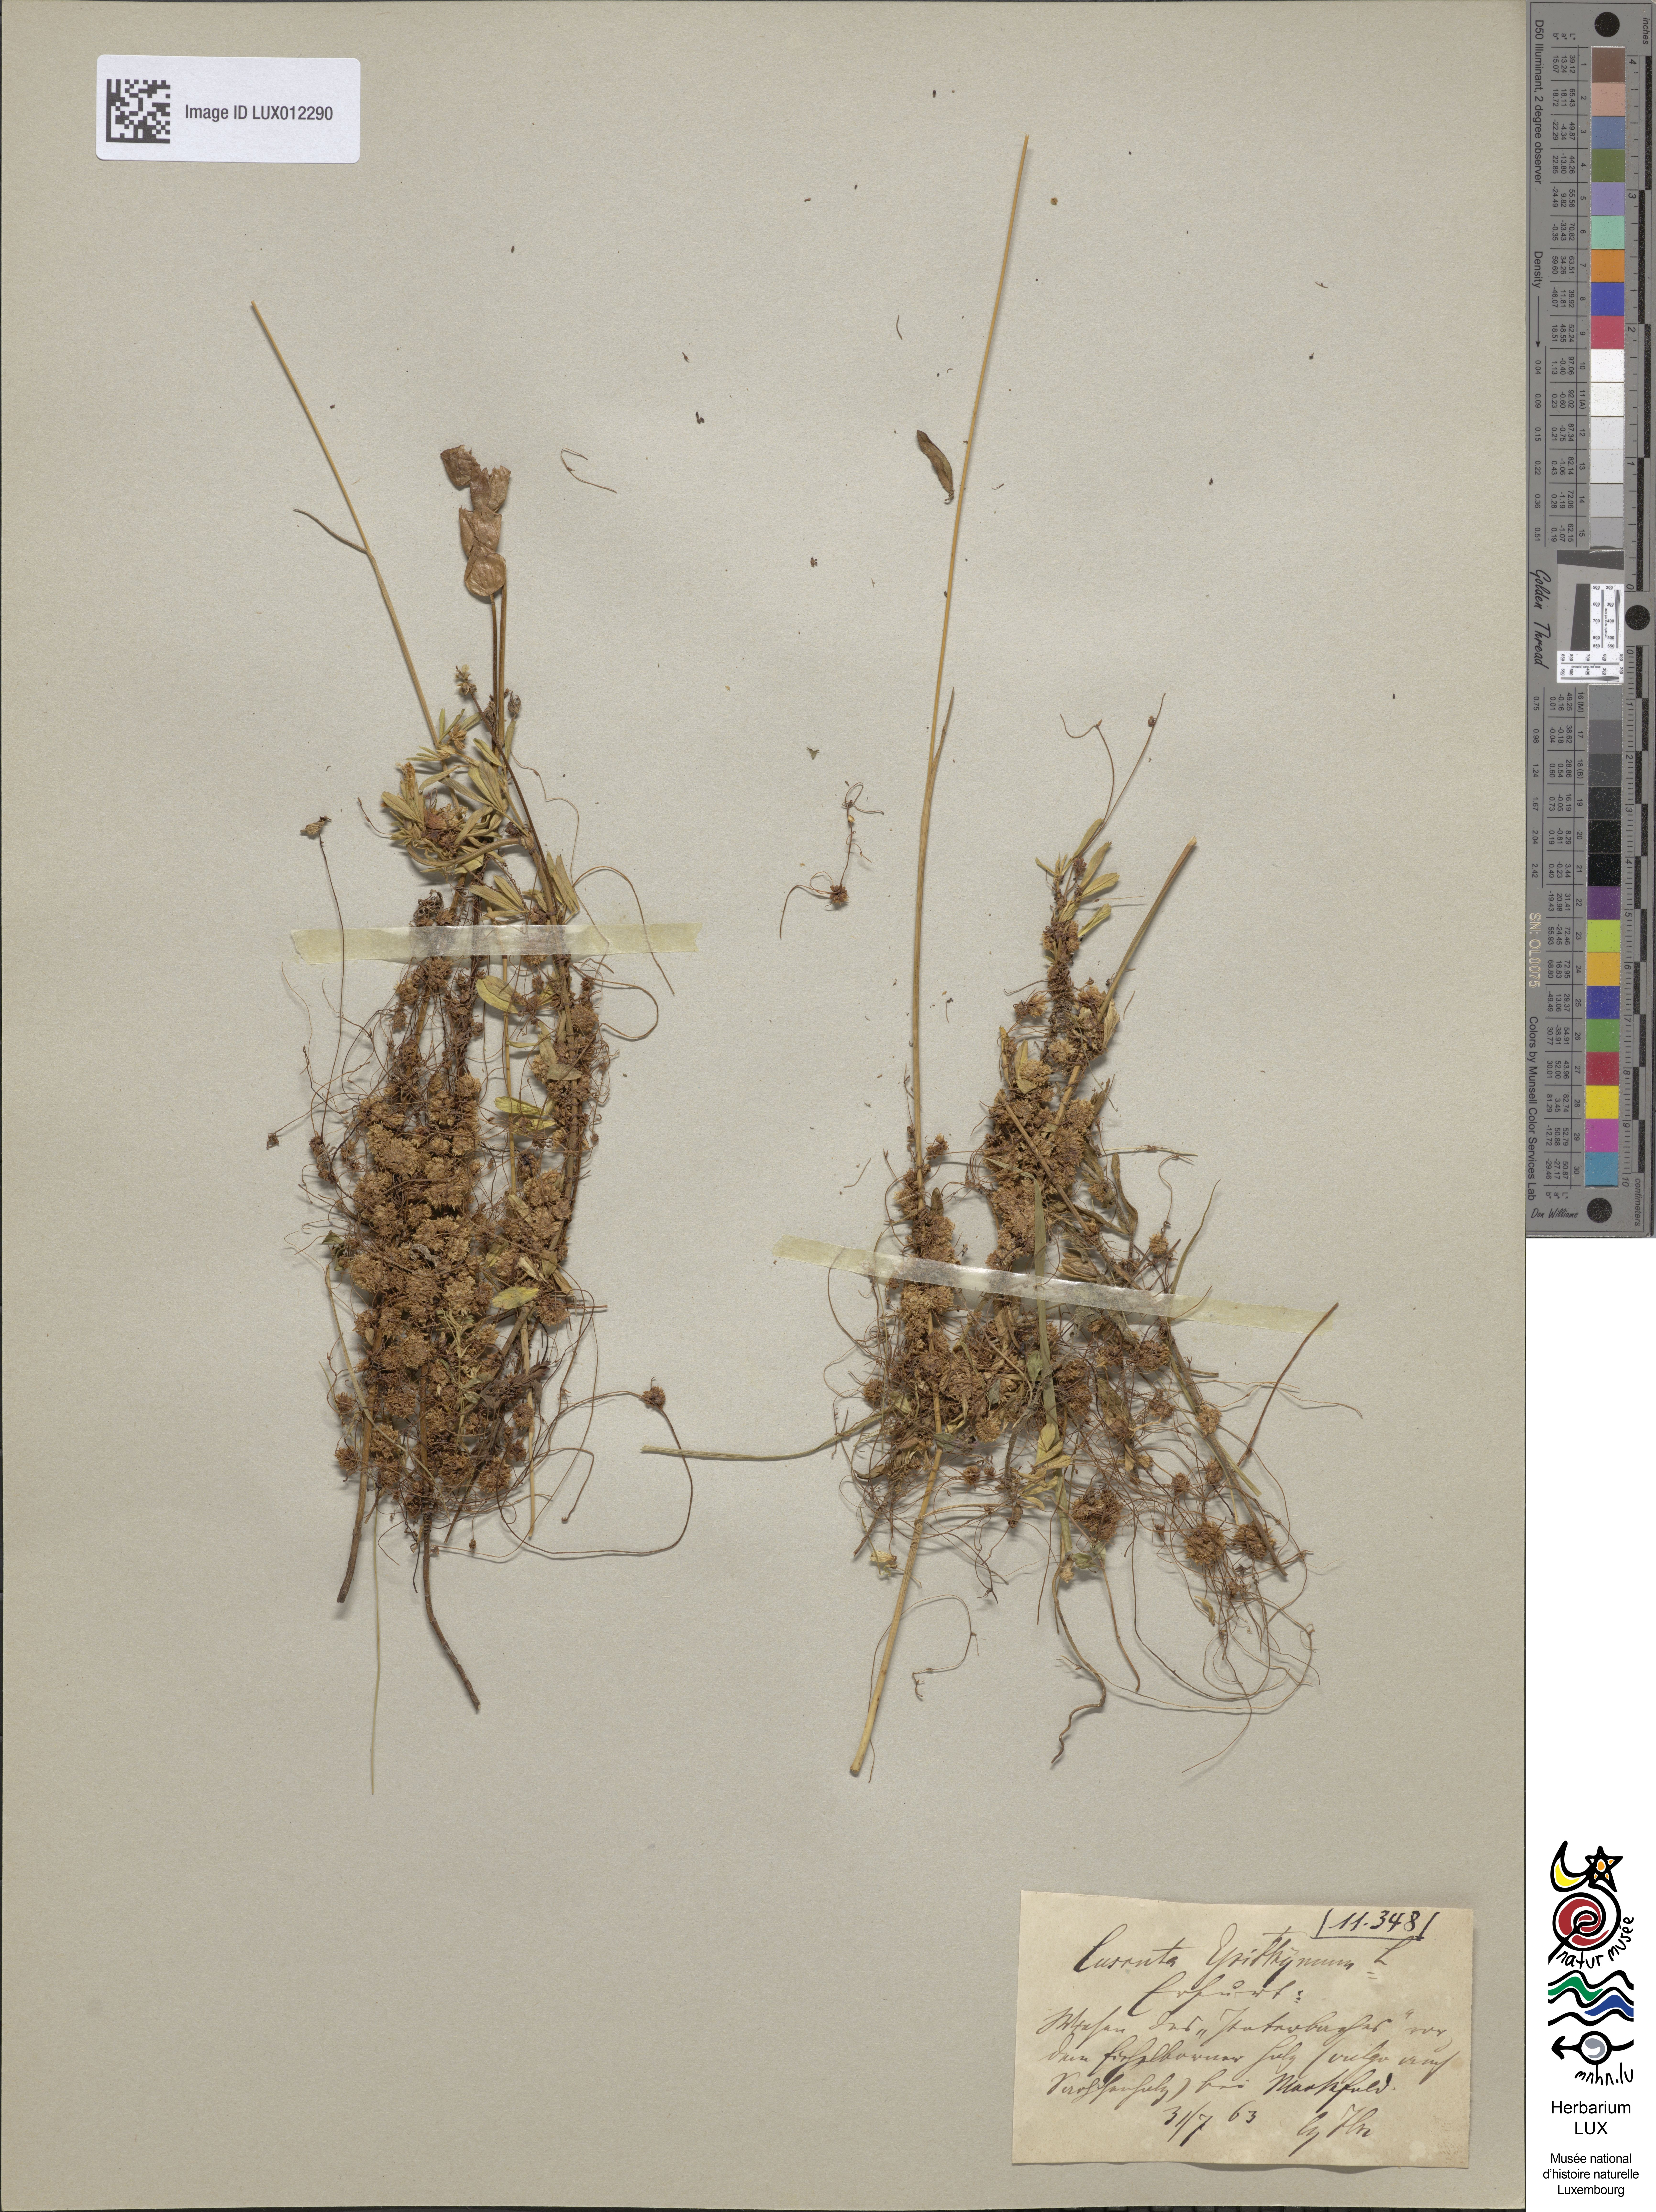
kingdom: Plantae
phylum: Tracheophyta
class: Magnoliopsida
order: Solanales
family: Convolvulaceae
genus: Cuscuta
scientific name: Cuscuta epithymum
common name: Clover dodder
